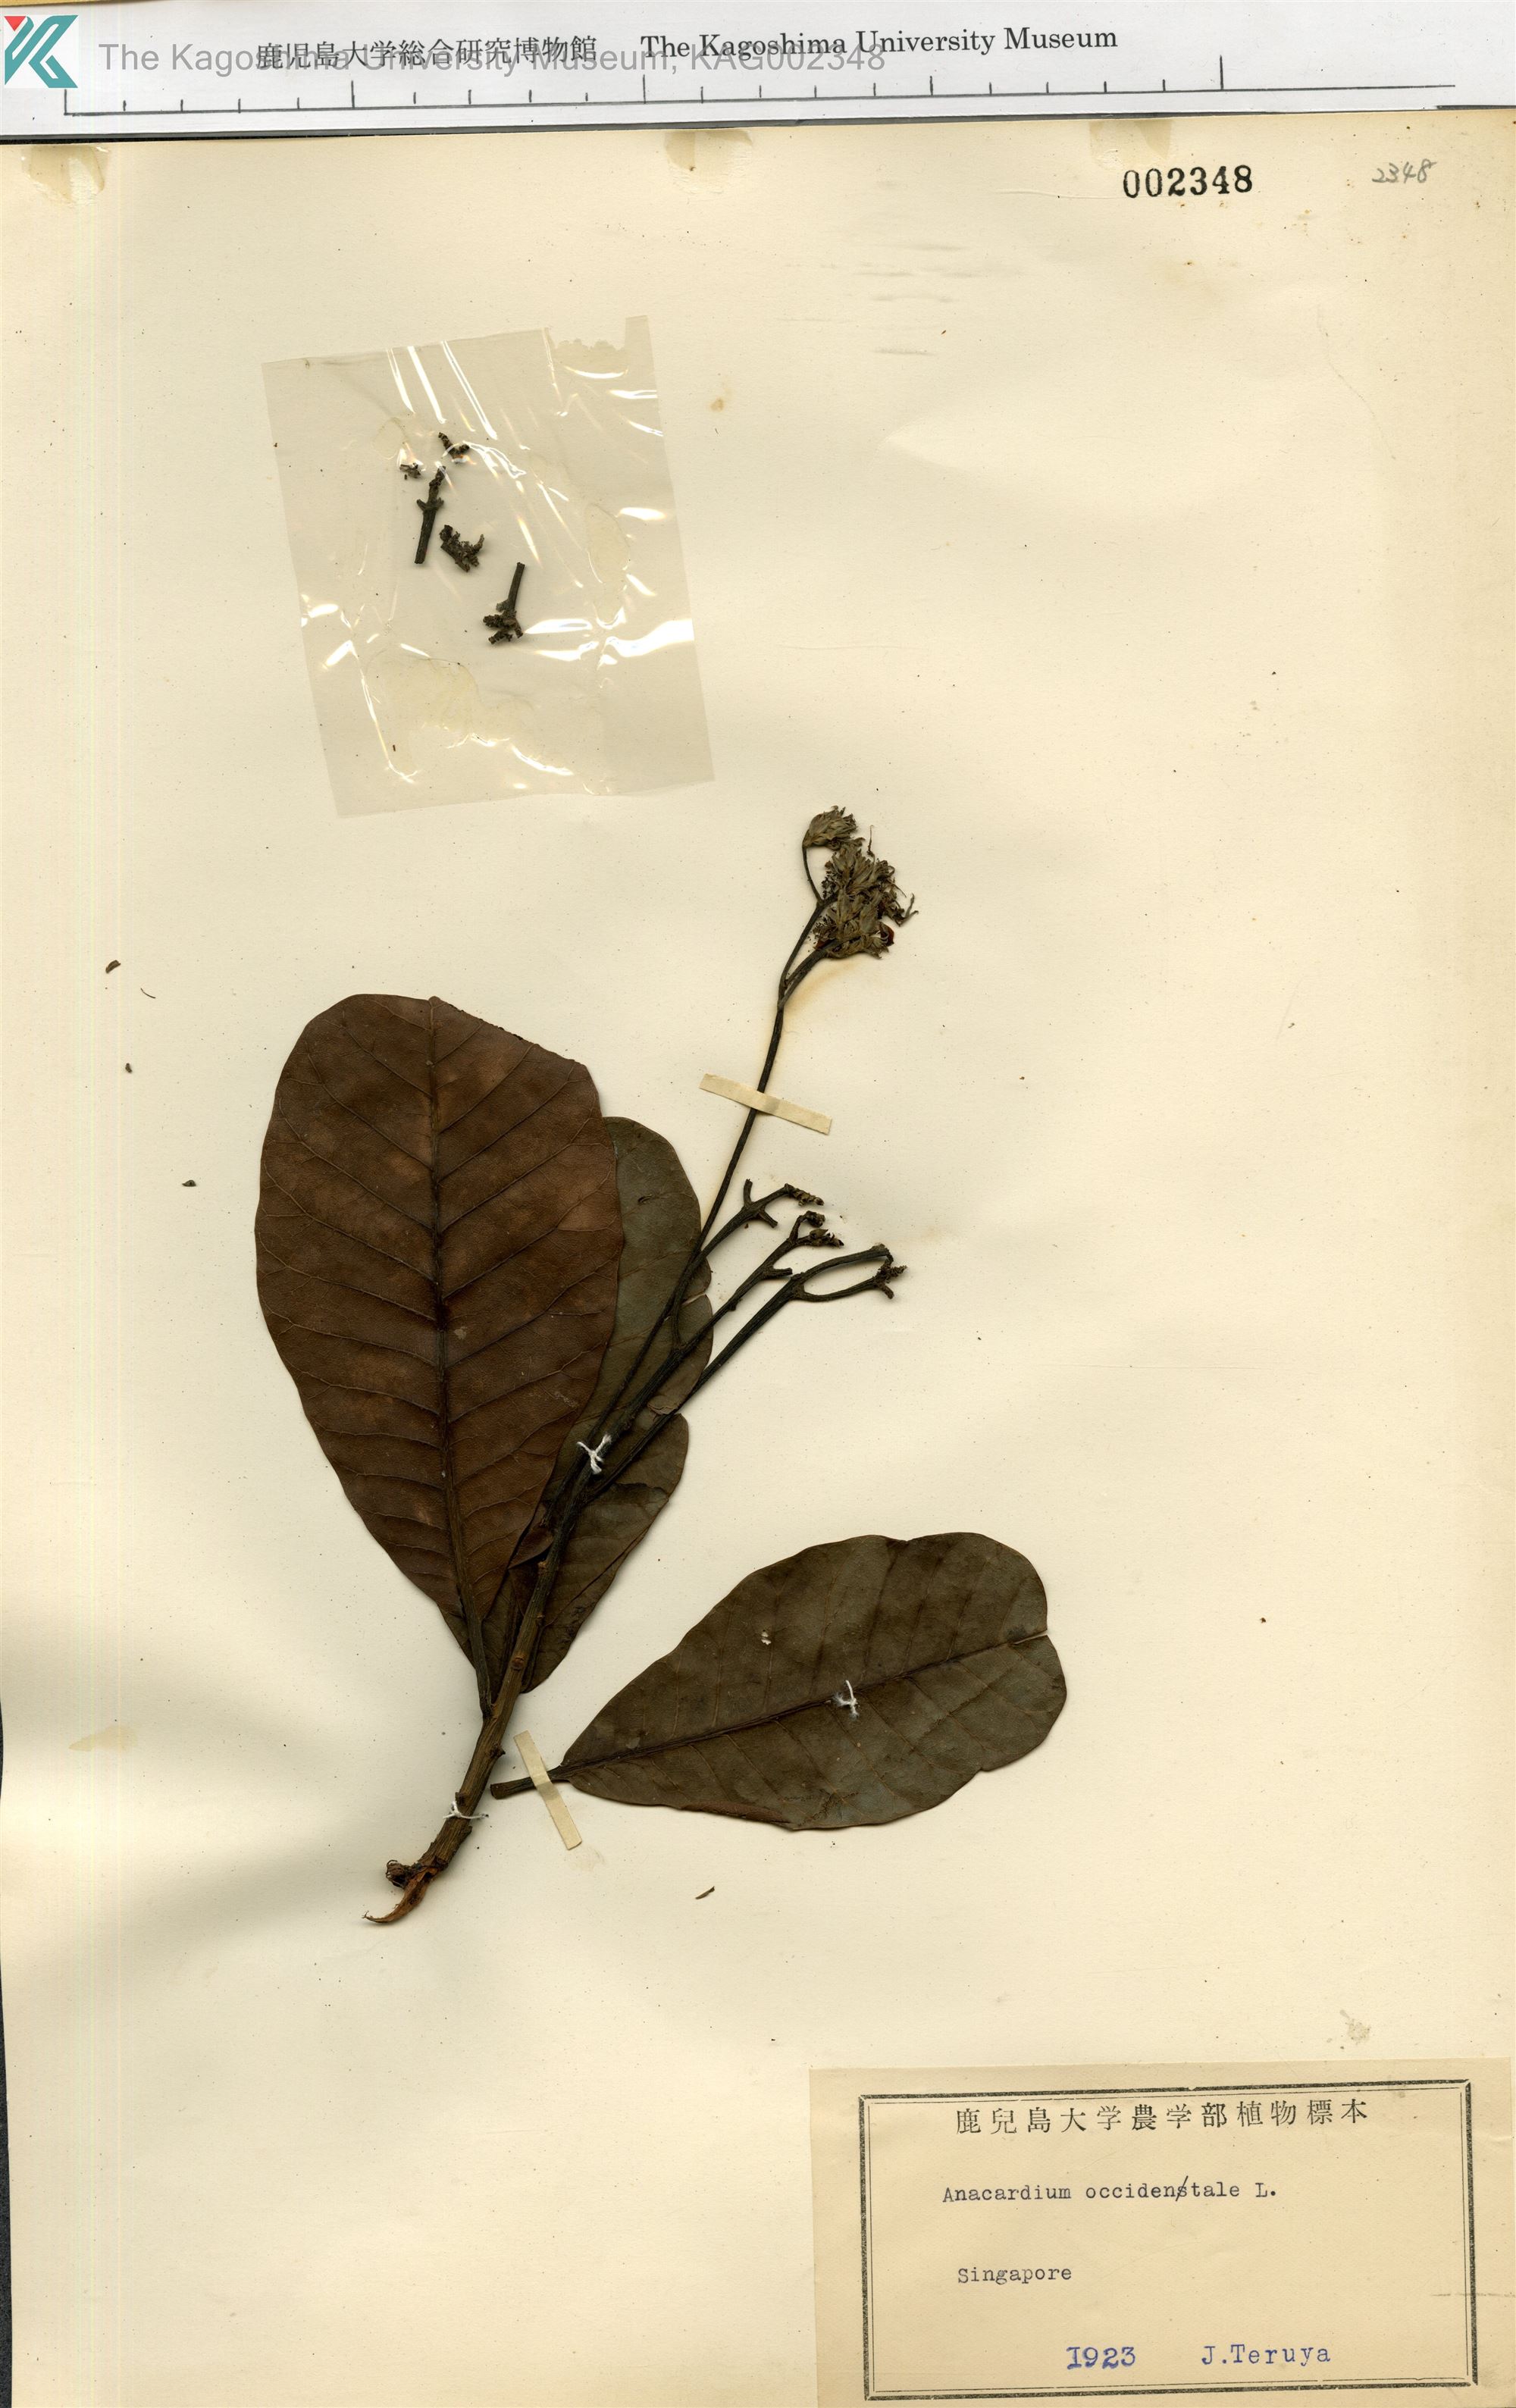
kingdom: Plantae
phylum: Tracheophyta
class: Magnoliopsida
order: Sapindales
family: Anacardiaceae
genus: Anacardium
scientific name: Anacardium occidentale
